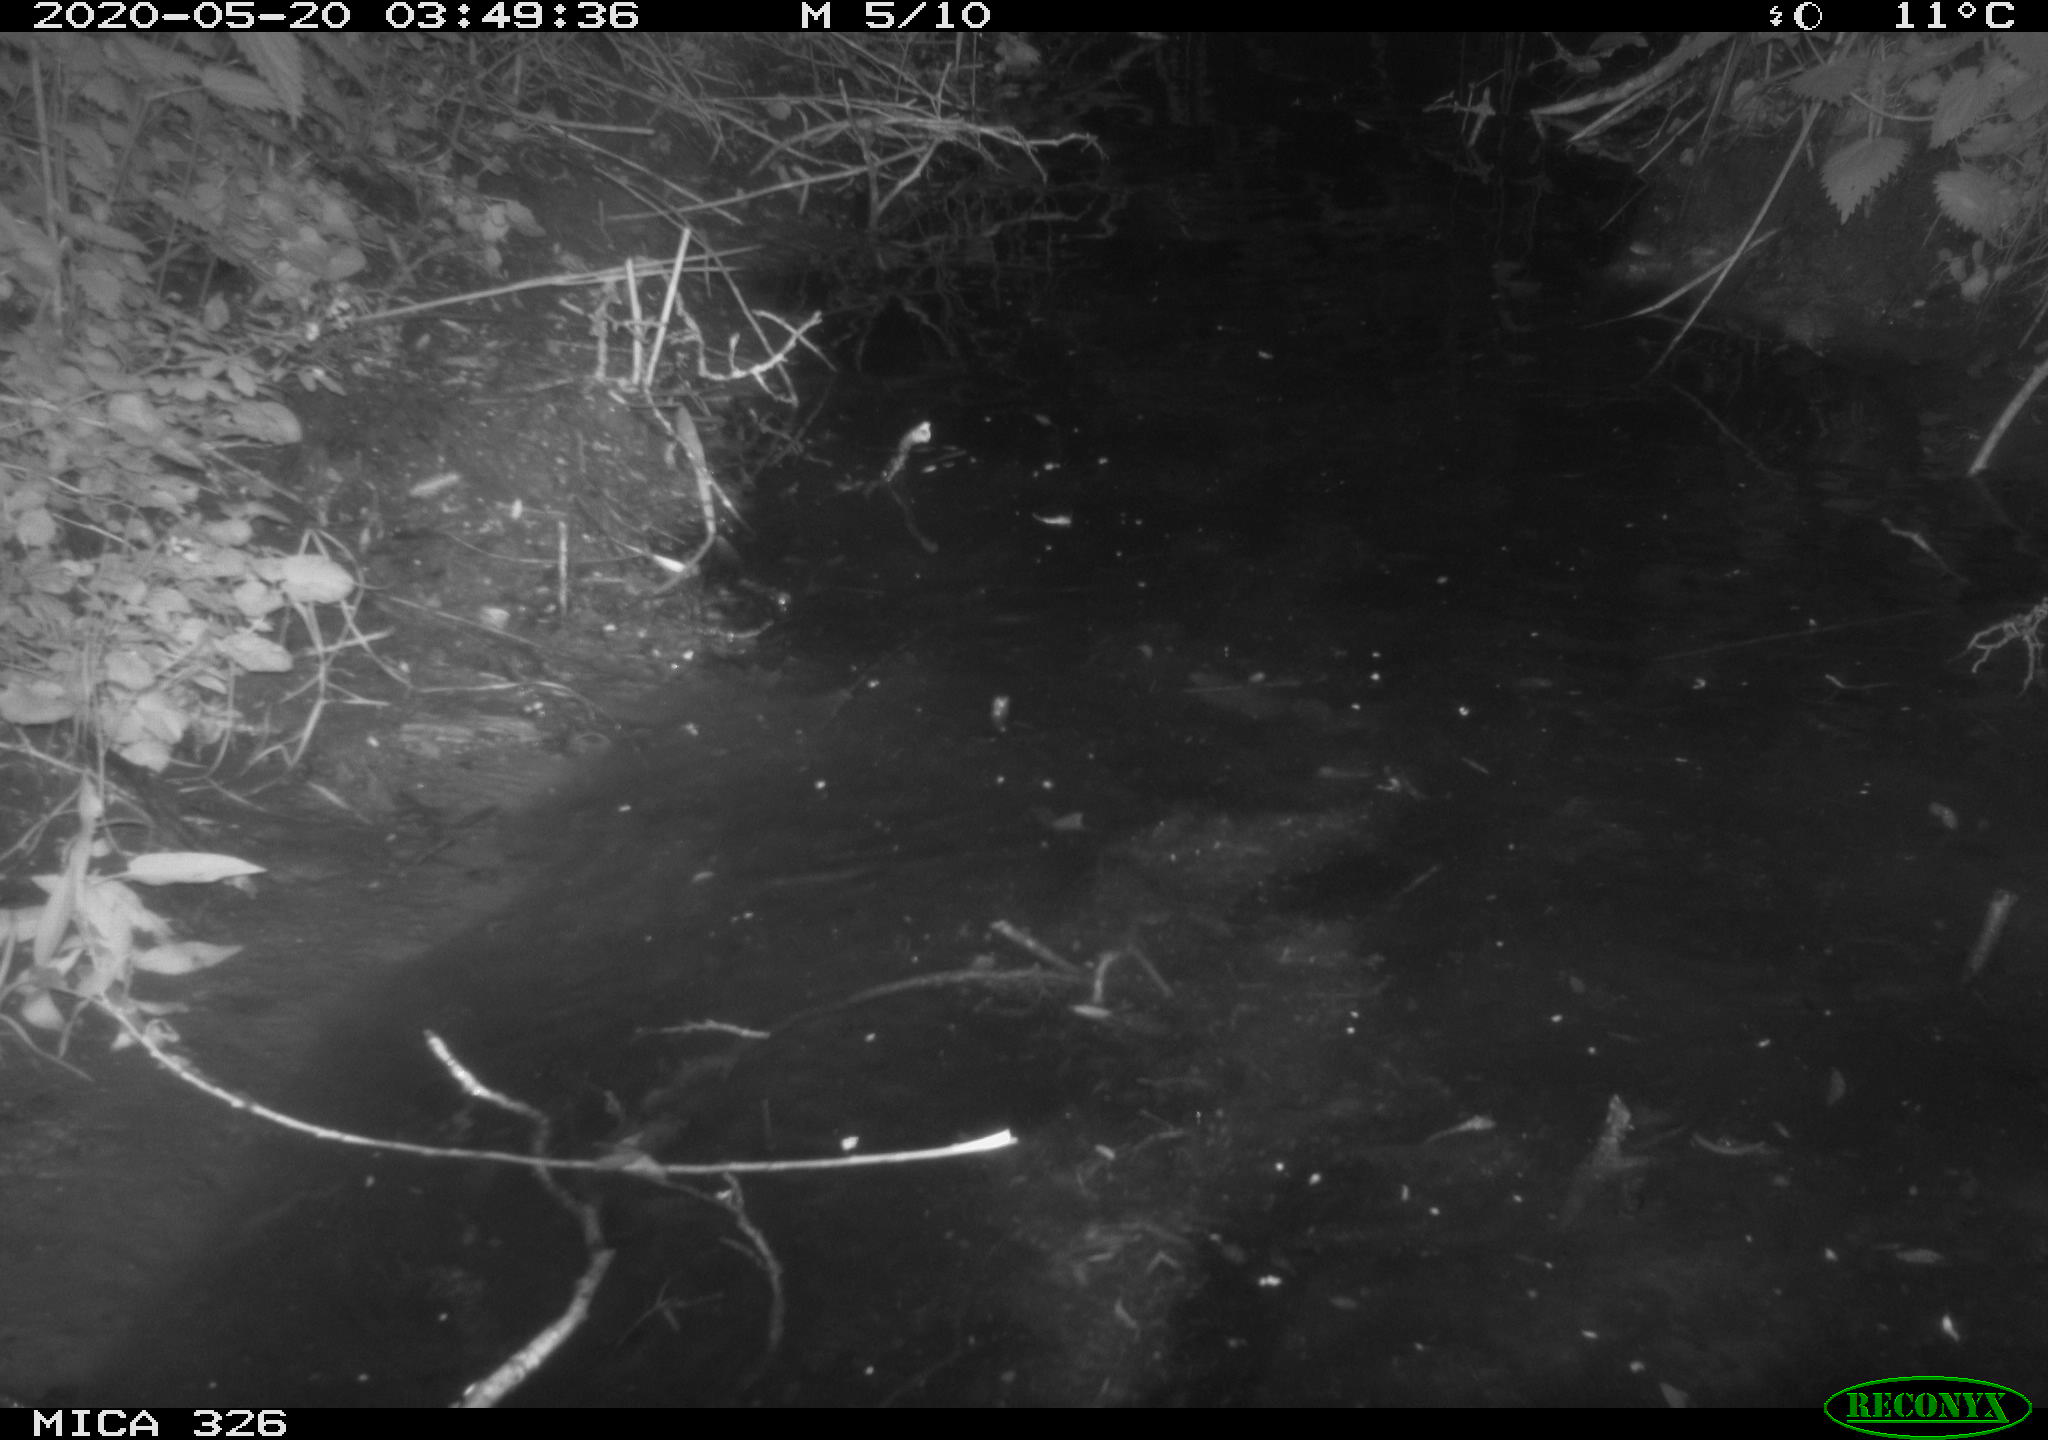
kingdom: Animalia
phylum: Chordata
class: Mammalia
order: Rodentia
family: Cricetidae
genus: Ondatra
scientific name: Ondatra zibethicus
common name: Muskrat
